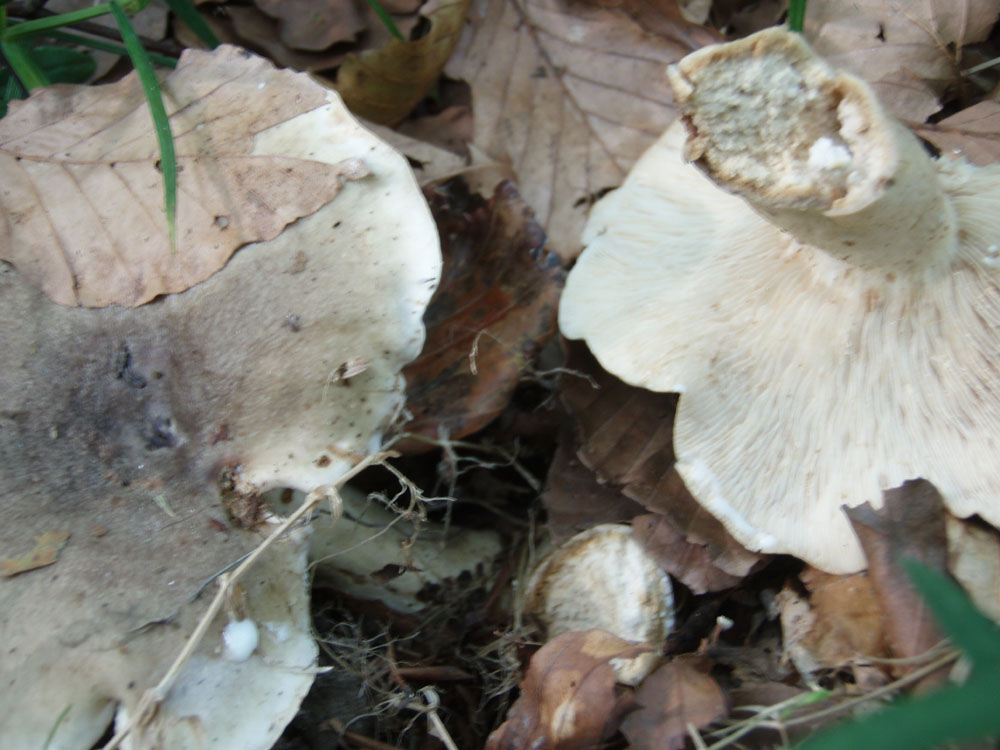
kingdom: Fungi
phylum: Basidiomycota
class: Agaricomycetes
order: Russulales
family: Russulaceae
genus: Lactarius
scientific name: Lactarius fluens
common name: lysrandet mælkehat
